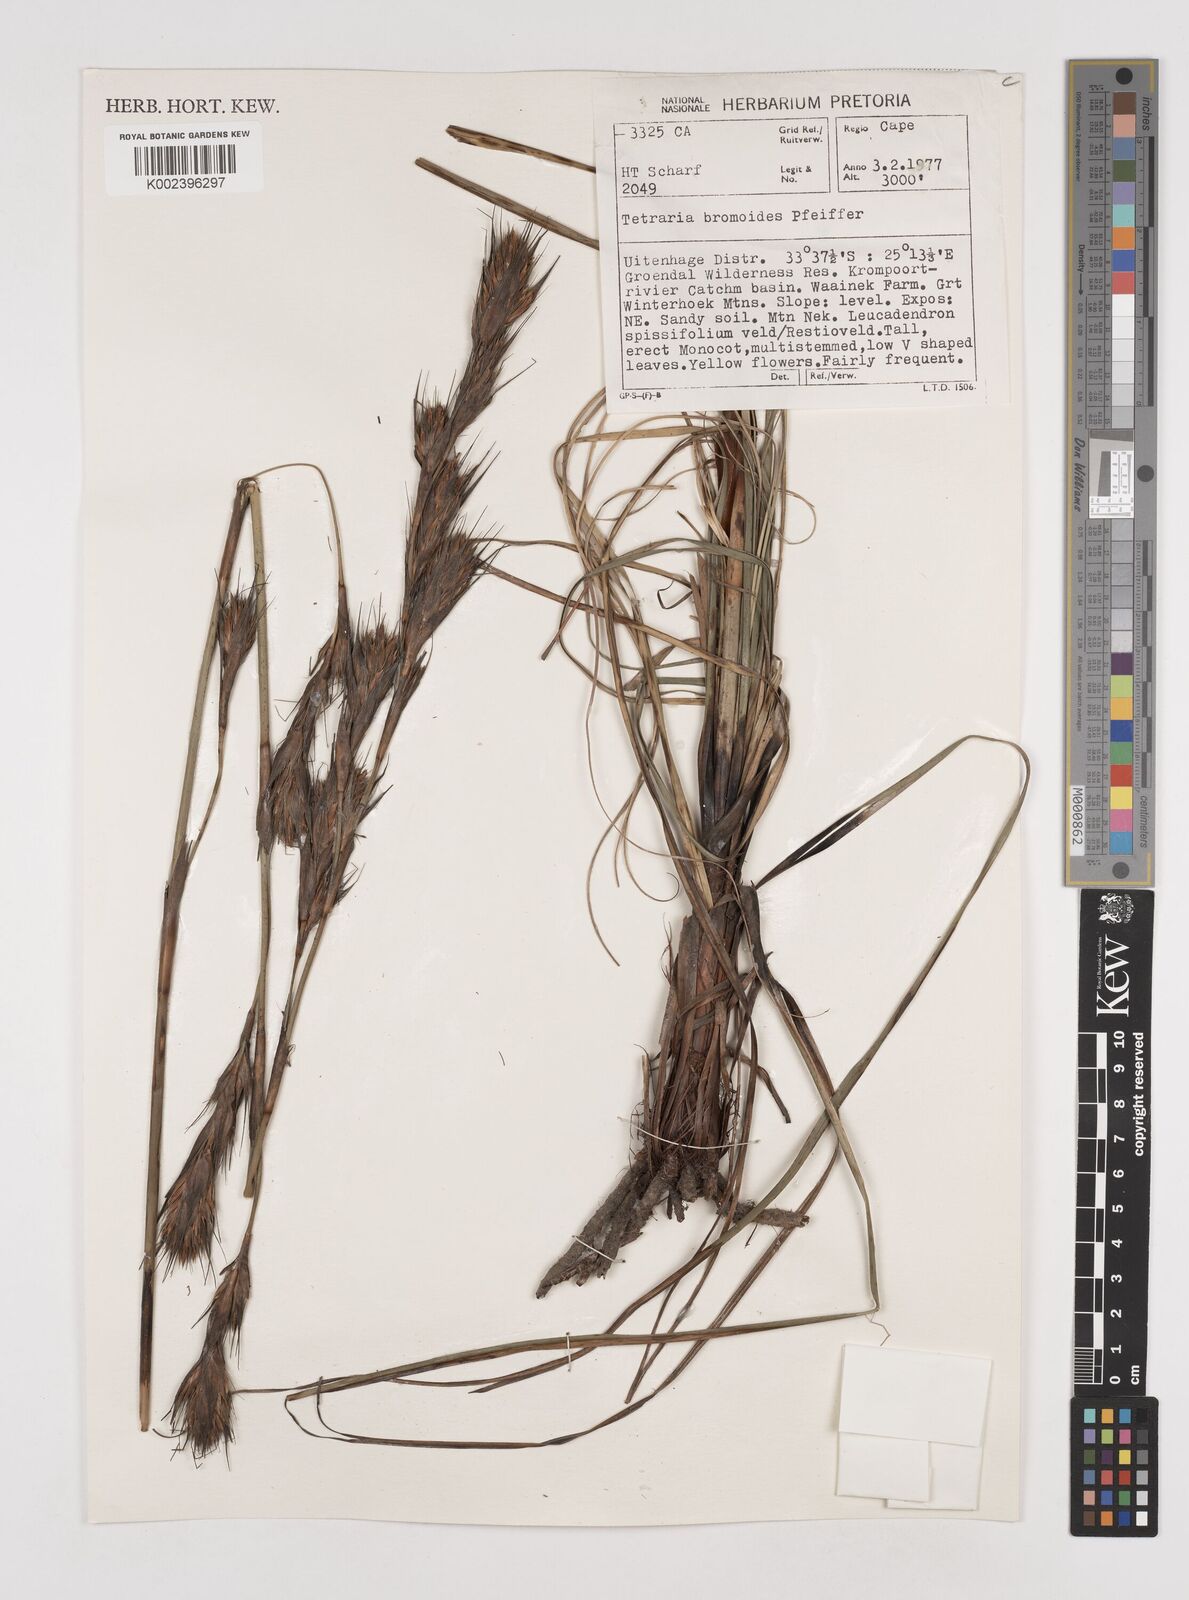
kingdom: Plantae
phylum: Tracheophyta
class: Liliopsida
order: Poales
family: Cyperaceae
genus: Tetraria
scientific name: Tetraria bromoides
